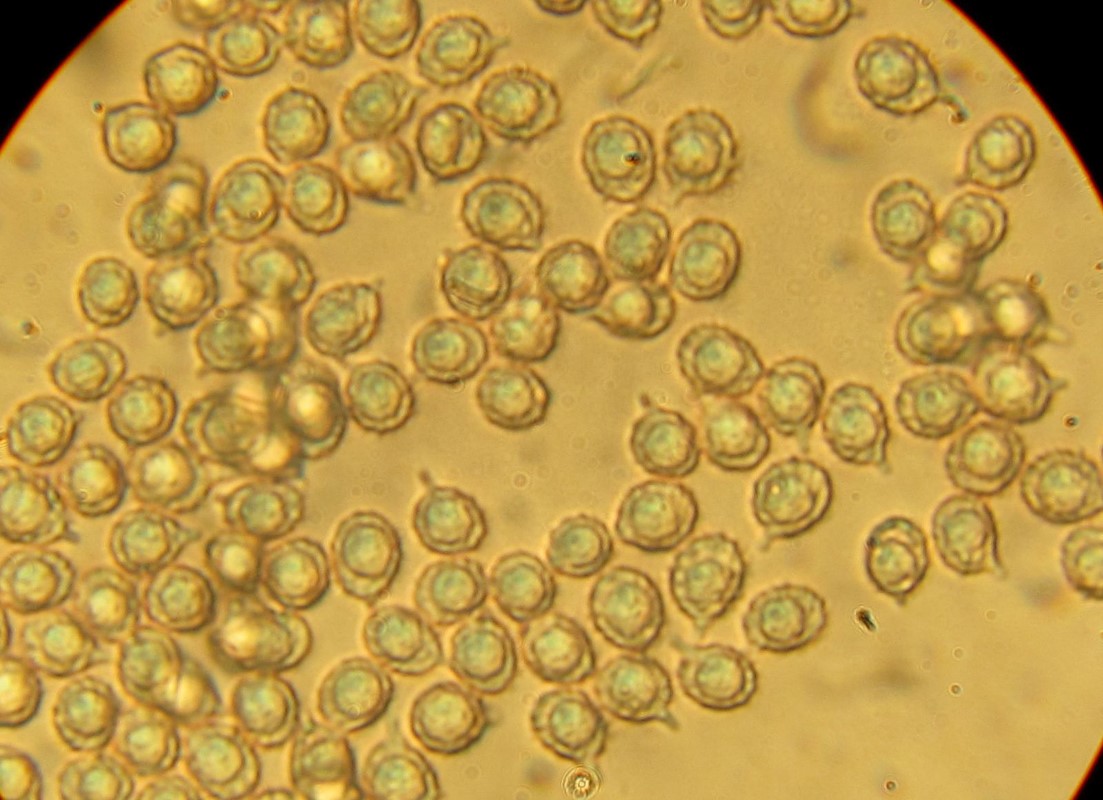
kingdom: Fungi
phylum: Basidiomycota
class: Agaricomycetes
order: Russulales
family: Russulaceae
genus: Russula
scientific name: Russula solaris
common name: sol-skørhat
